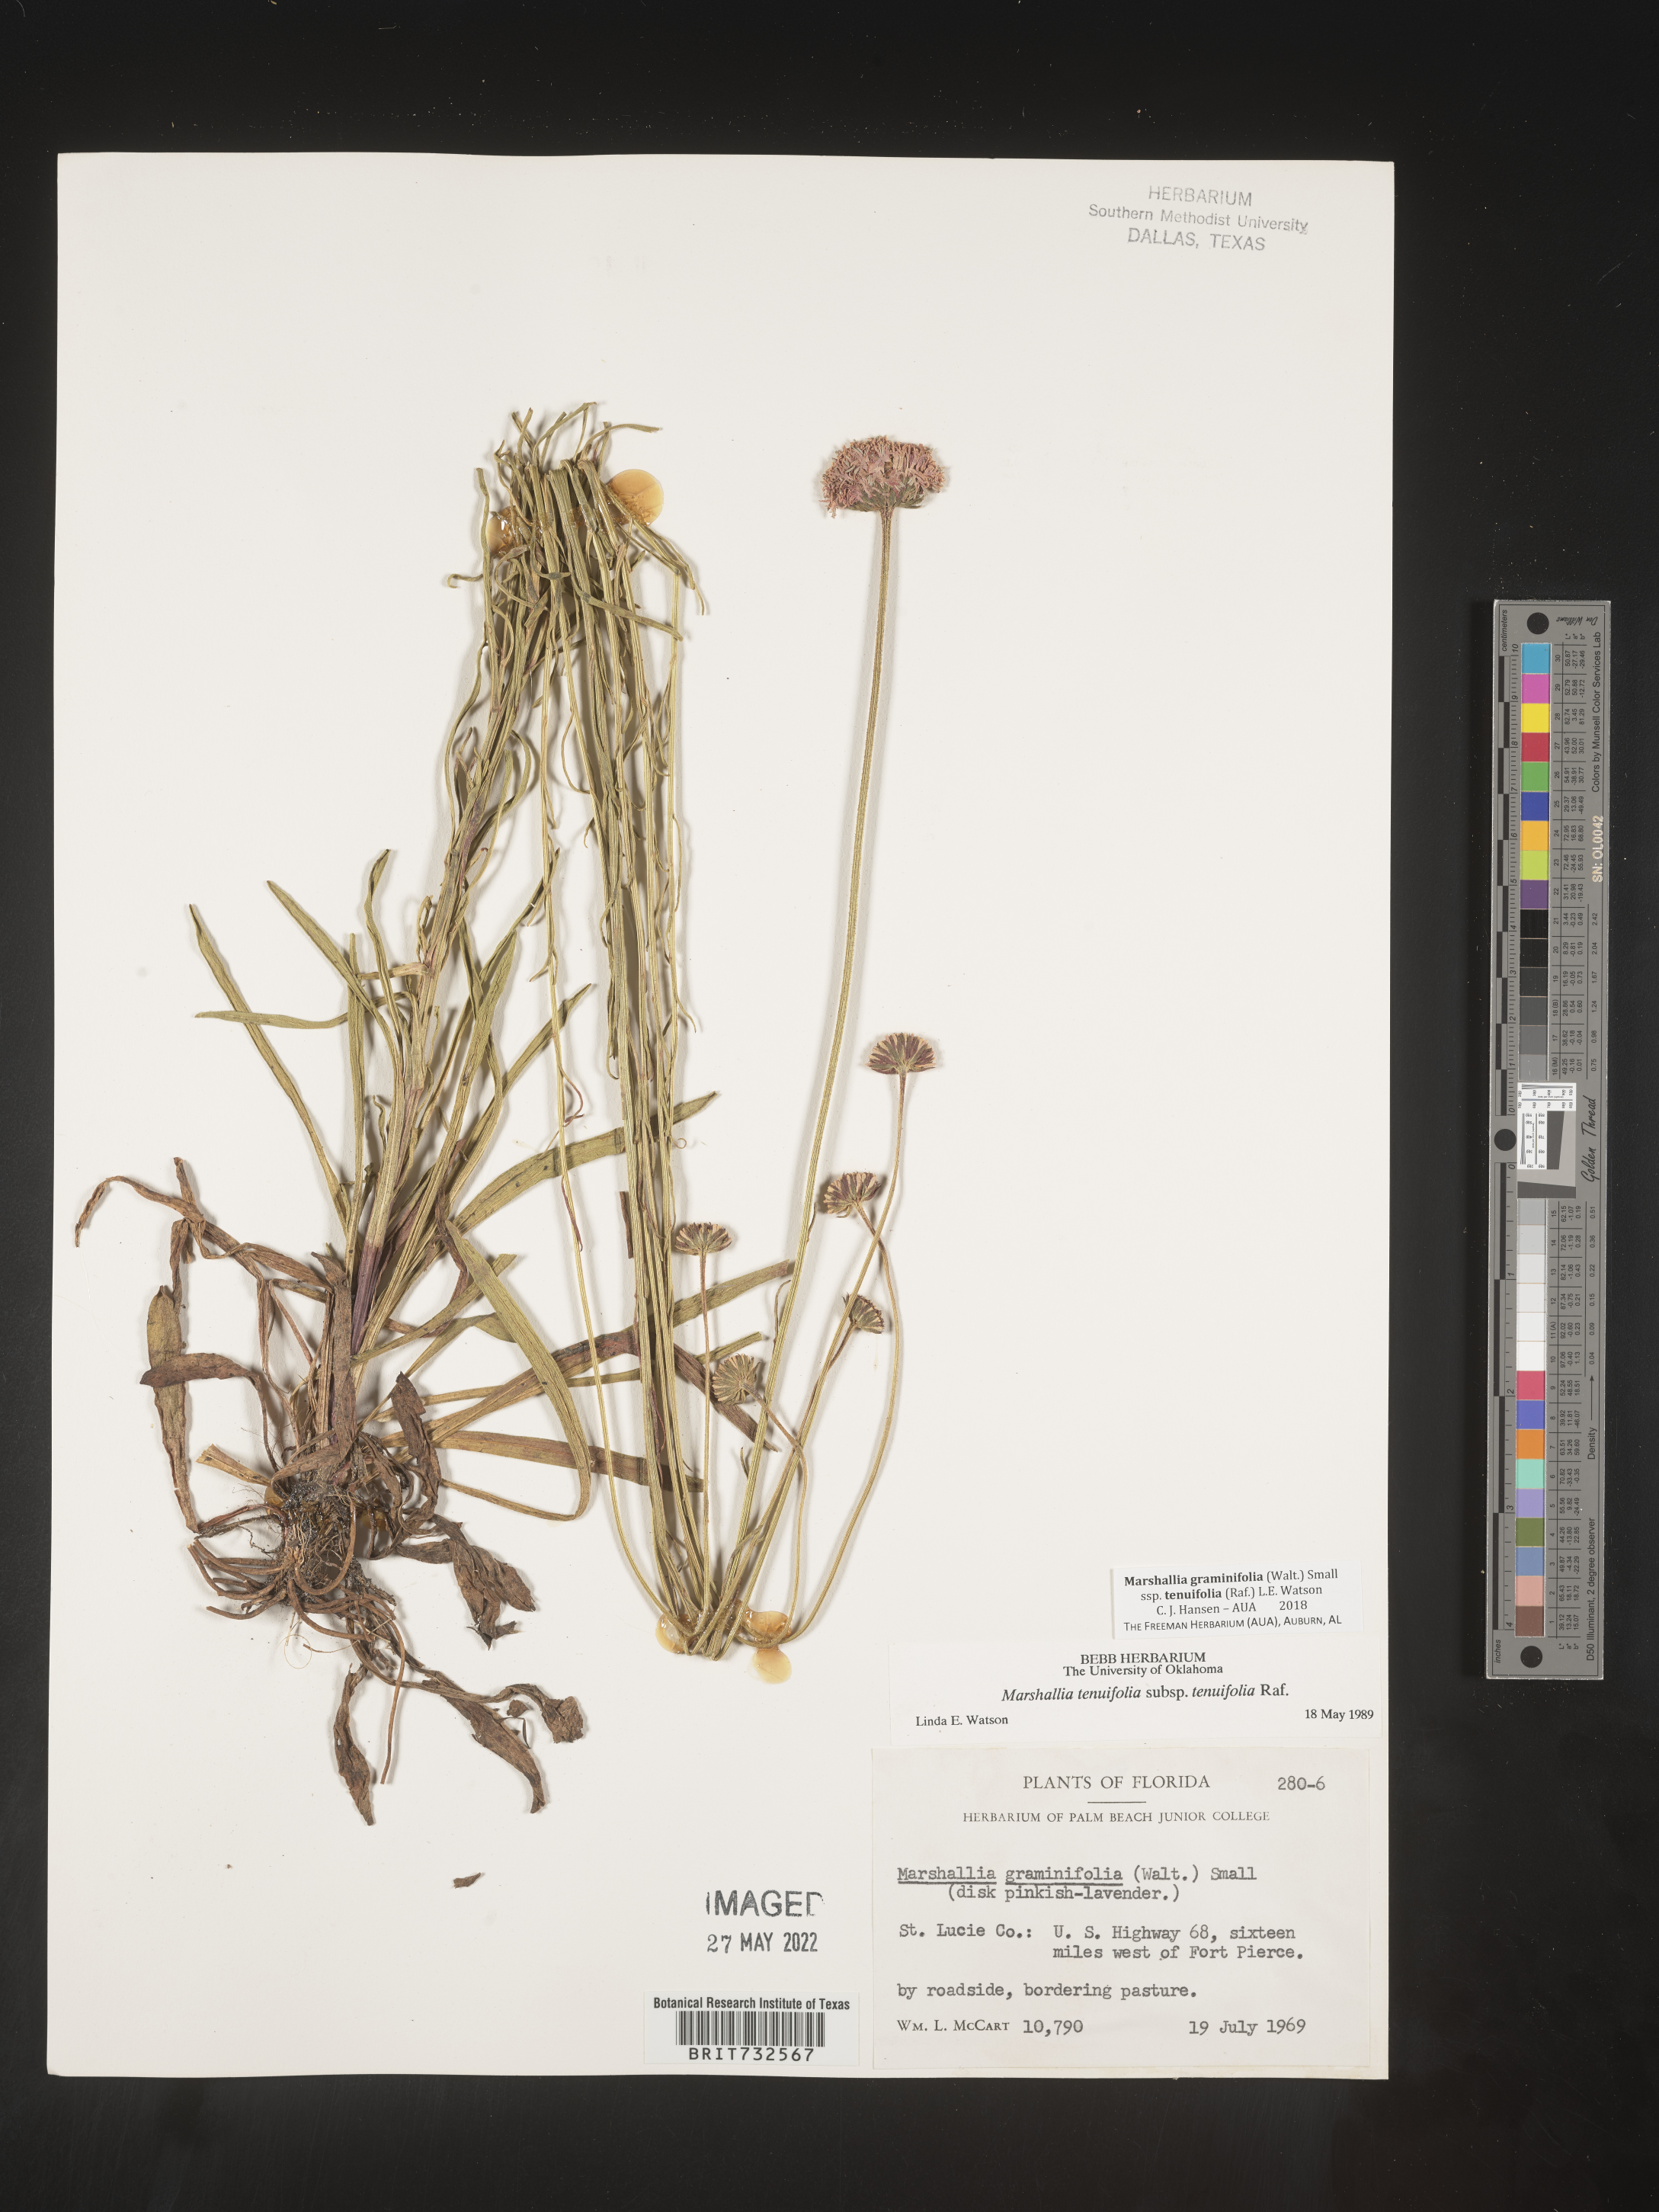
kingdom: Plantae
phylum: Tracheophyta
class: Magnoliopsida
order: Asterales
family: Asteraceae
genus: Marshallia
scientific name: Marshallia graminifolia
